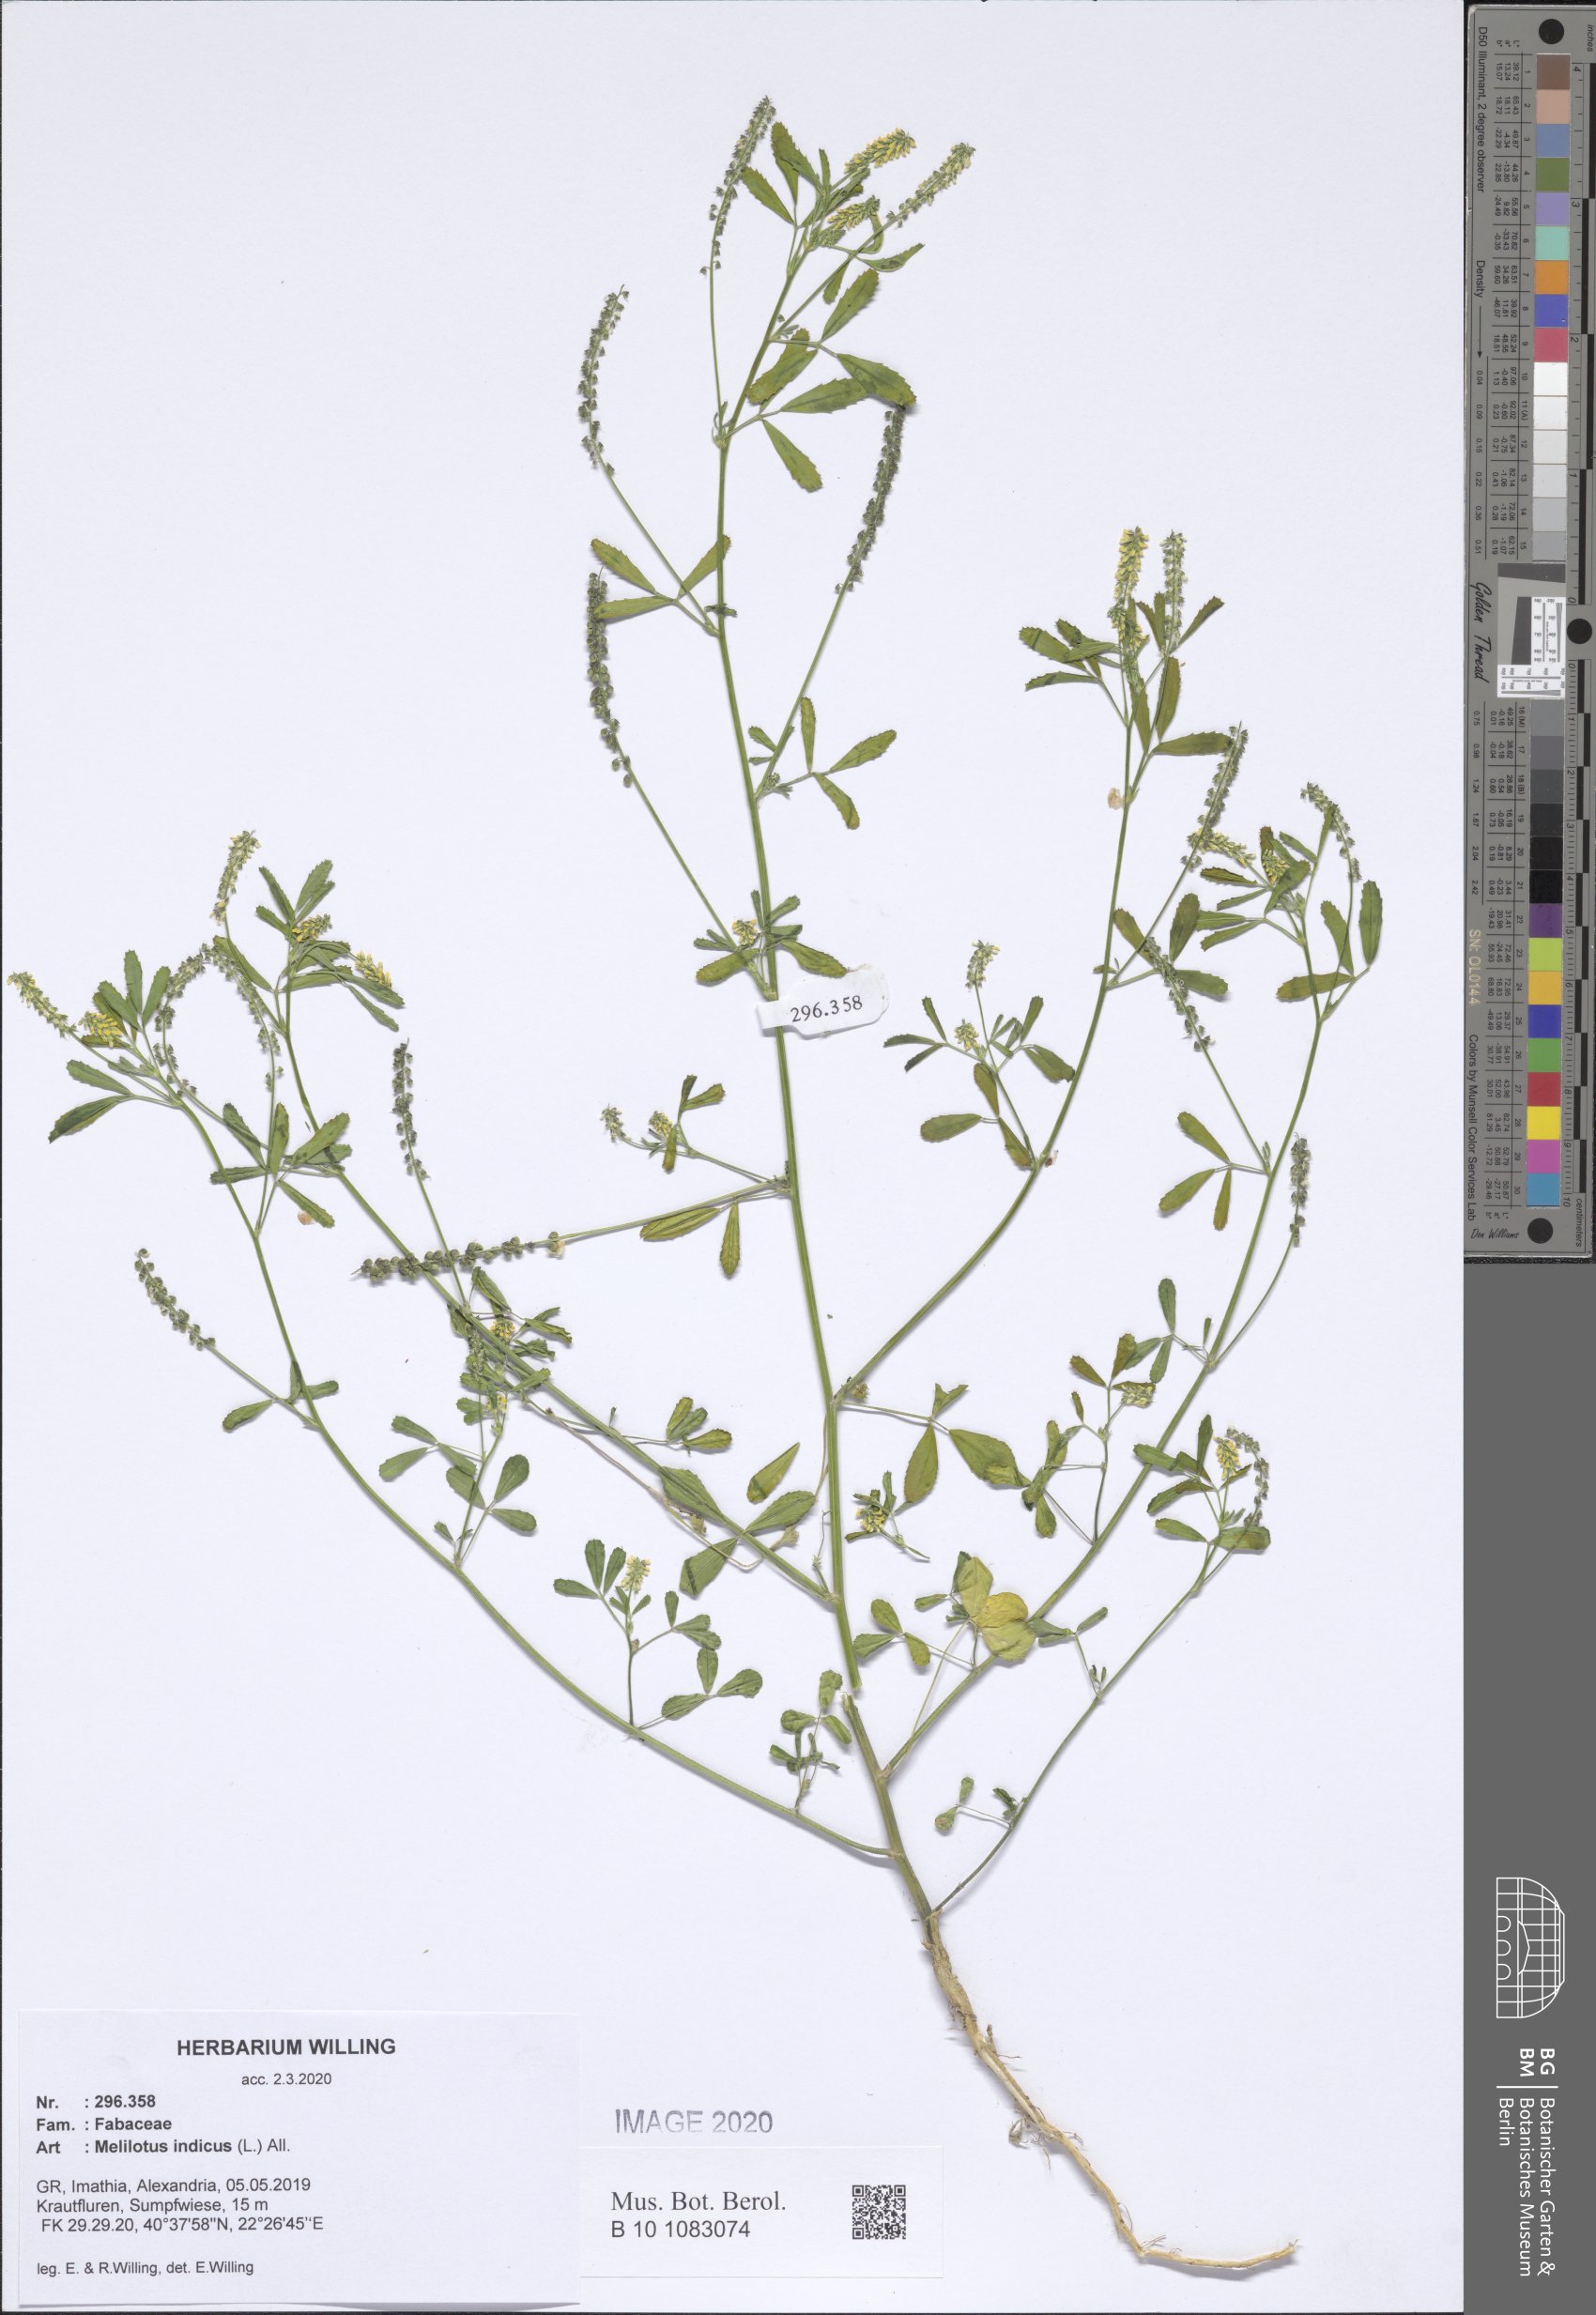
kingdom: Plantae
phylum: Tracheophyta
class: Magnoliopsida
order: Fabales
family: Fabaceae
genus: Melilotus
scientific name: Melilotus indicus
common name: Small melilot
